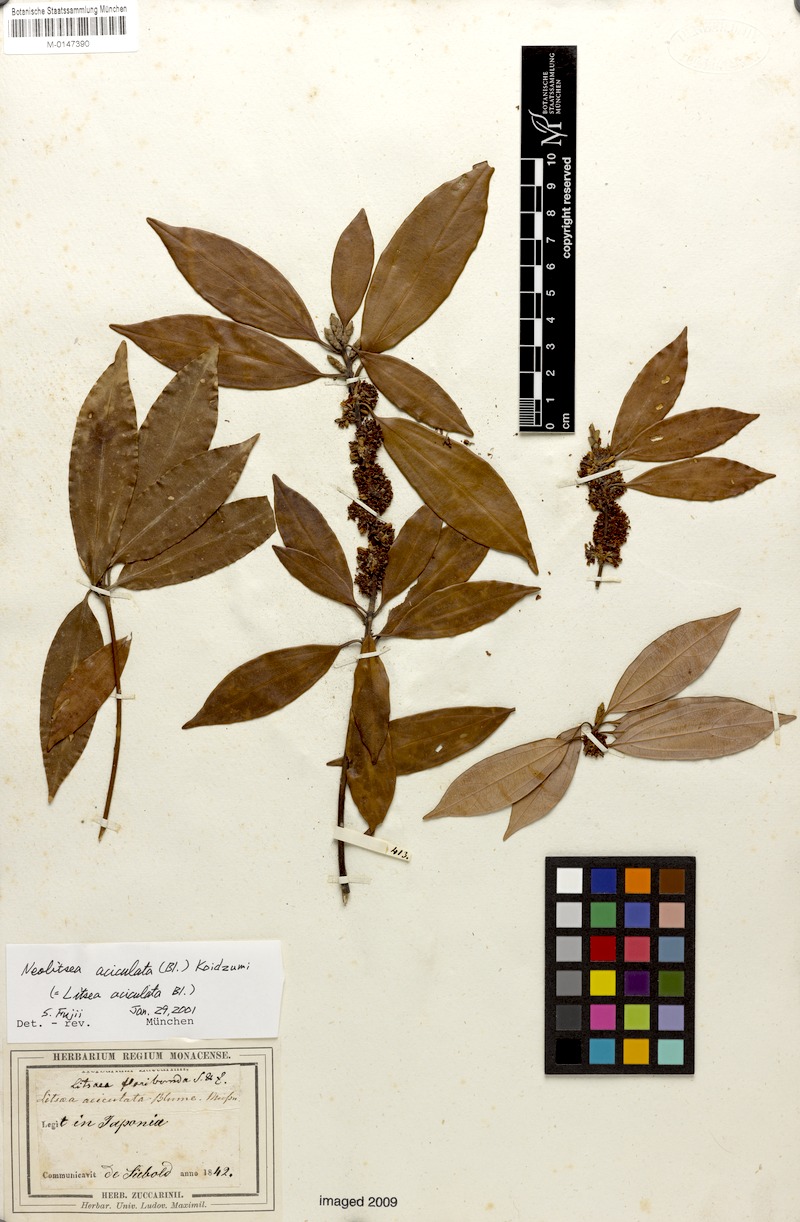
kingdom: Plantae
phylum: Tracheophyta
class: Magnoliopsida
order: Laurales
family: Lauraceae
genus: Neolitsea
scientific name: Neolitsea aciculata
